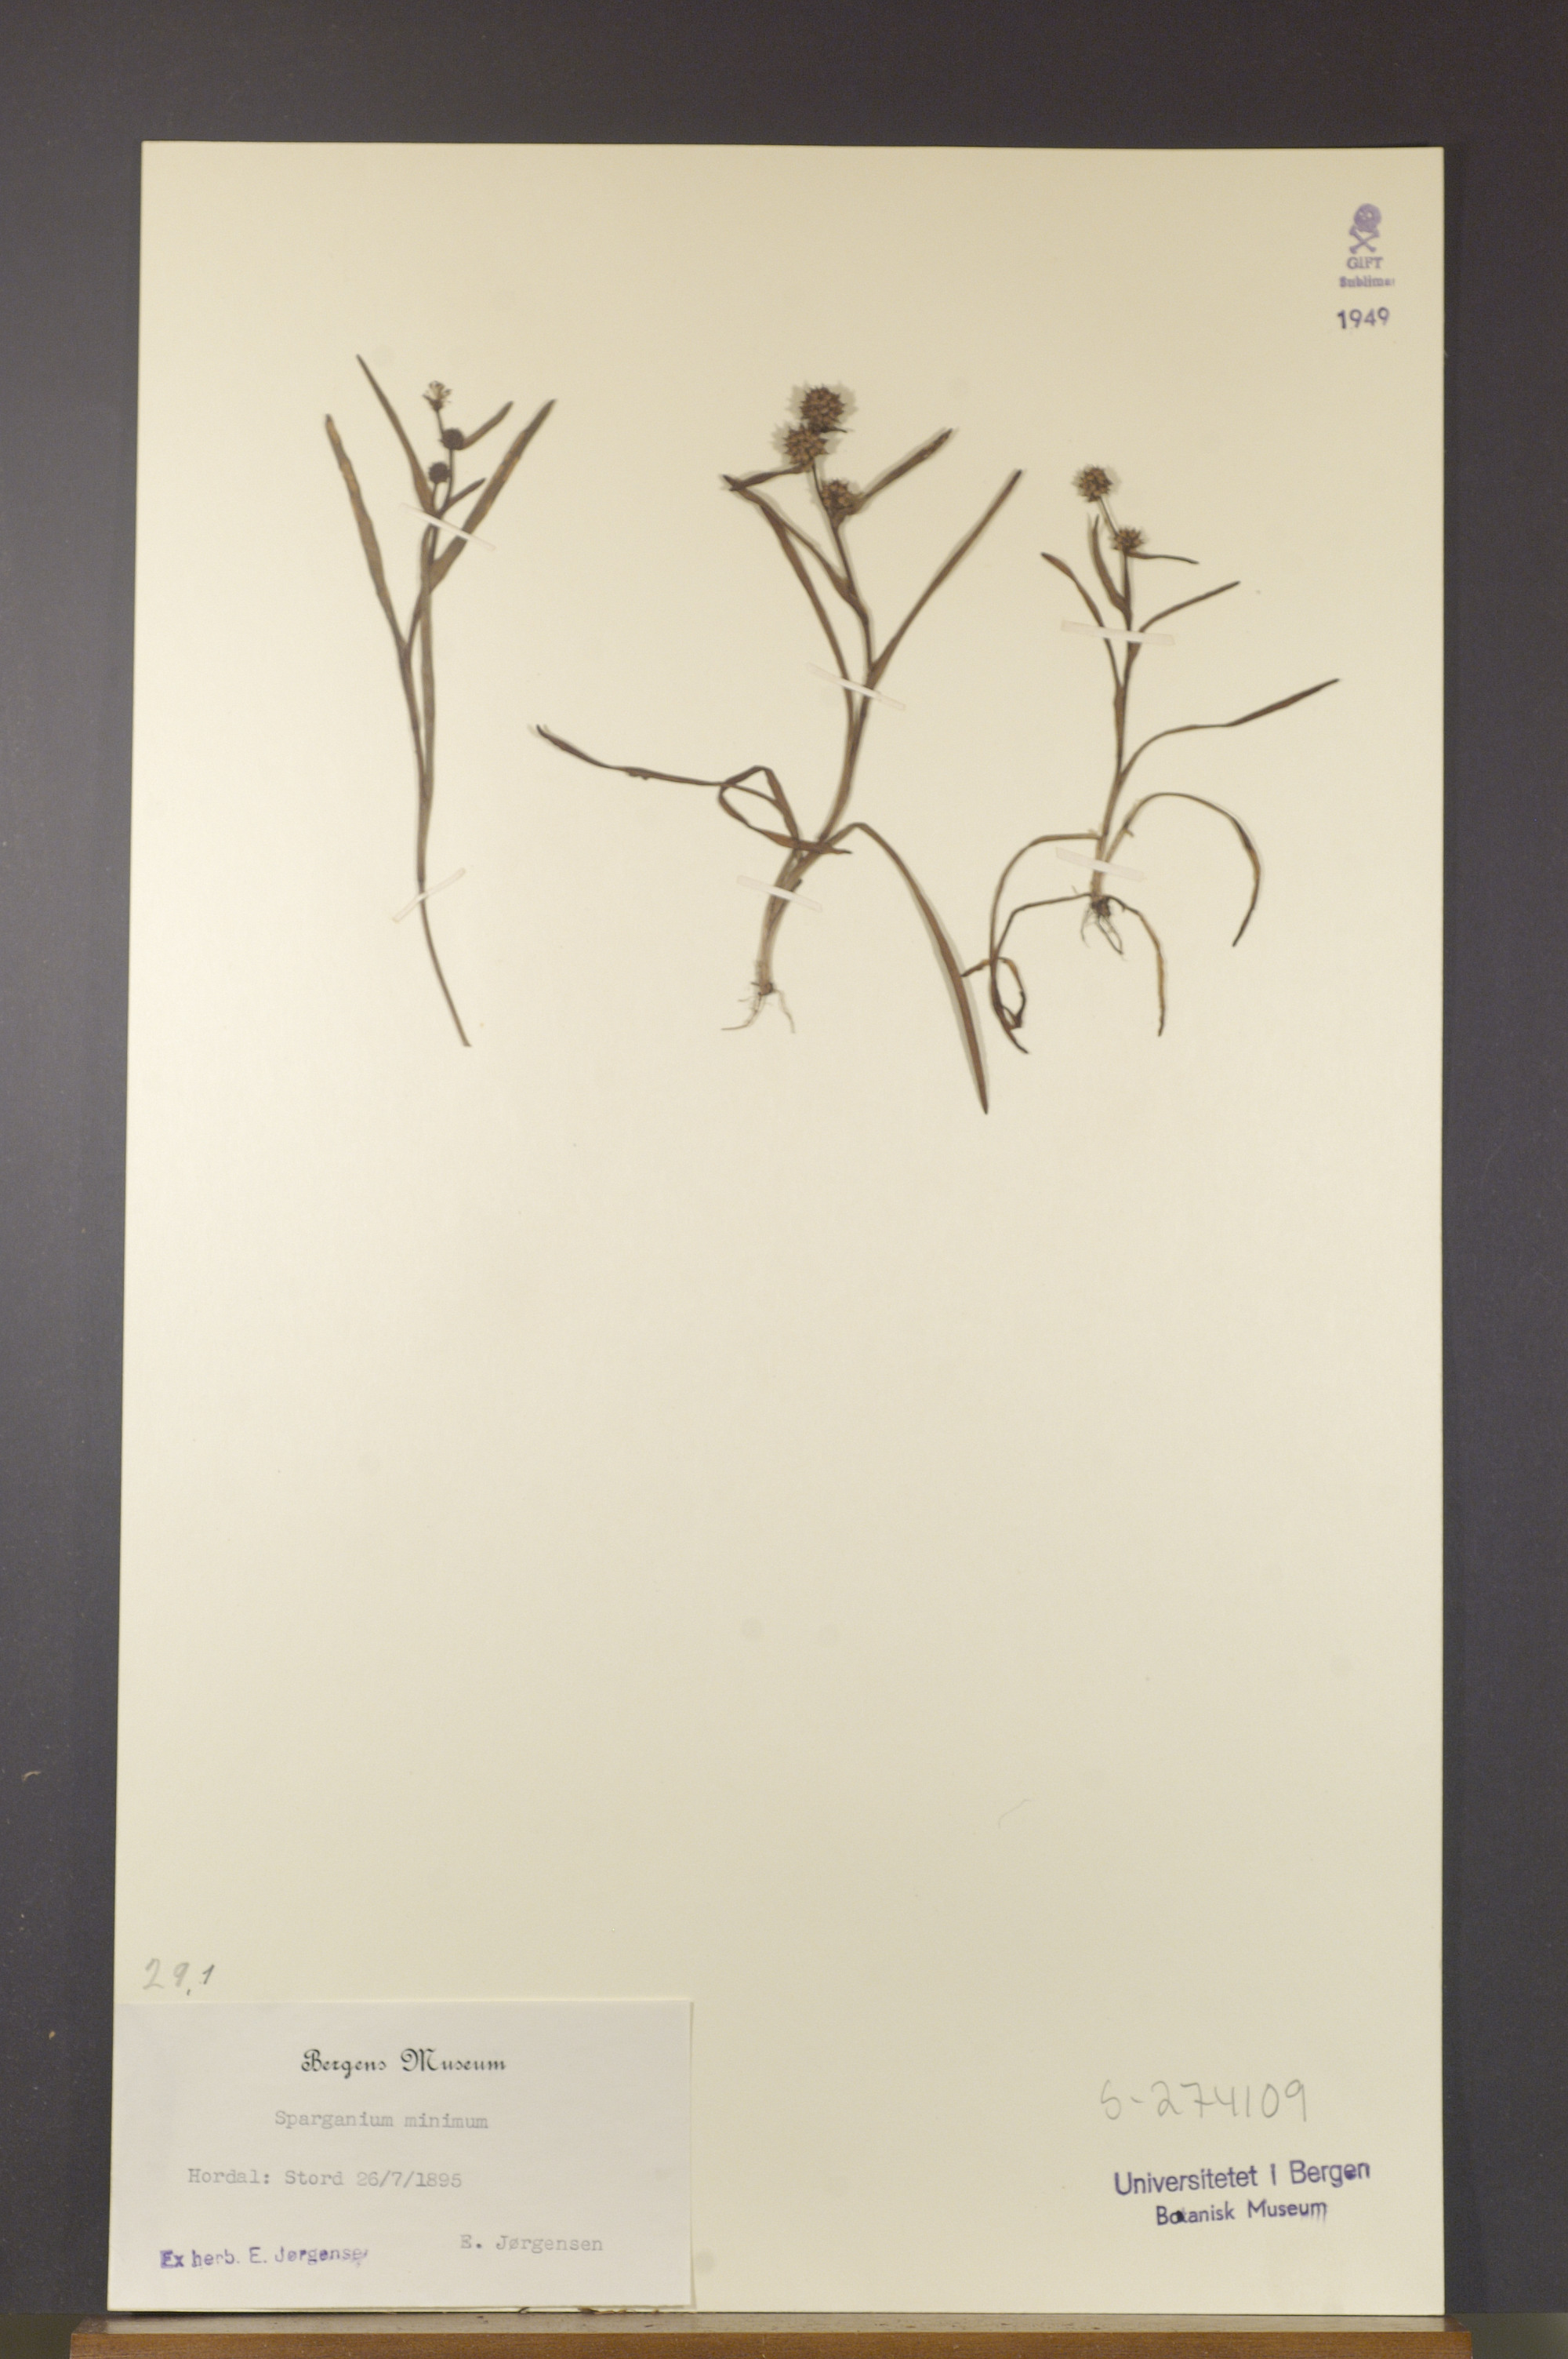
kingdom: Plantae
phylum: Tracheophyta
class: Liliopsida
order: Poales
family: Typhaceae
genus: Sparganium
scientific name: Sparganium natans
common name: Least bur-reed
